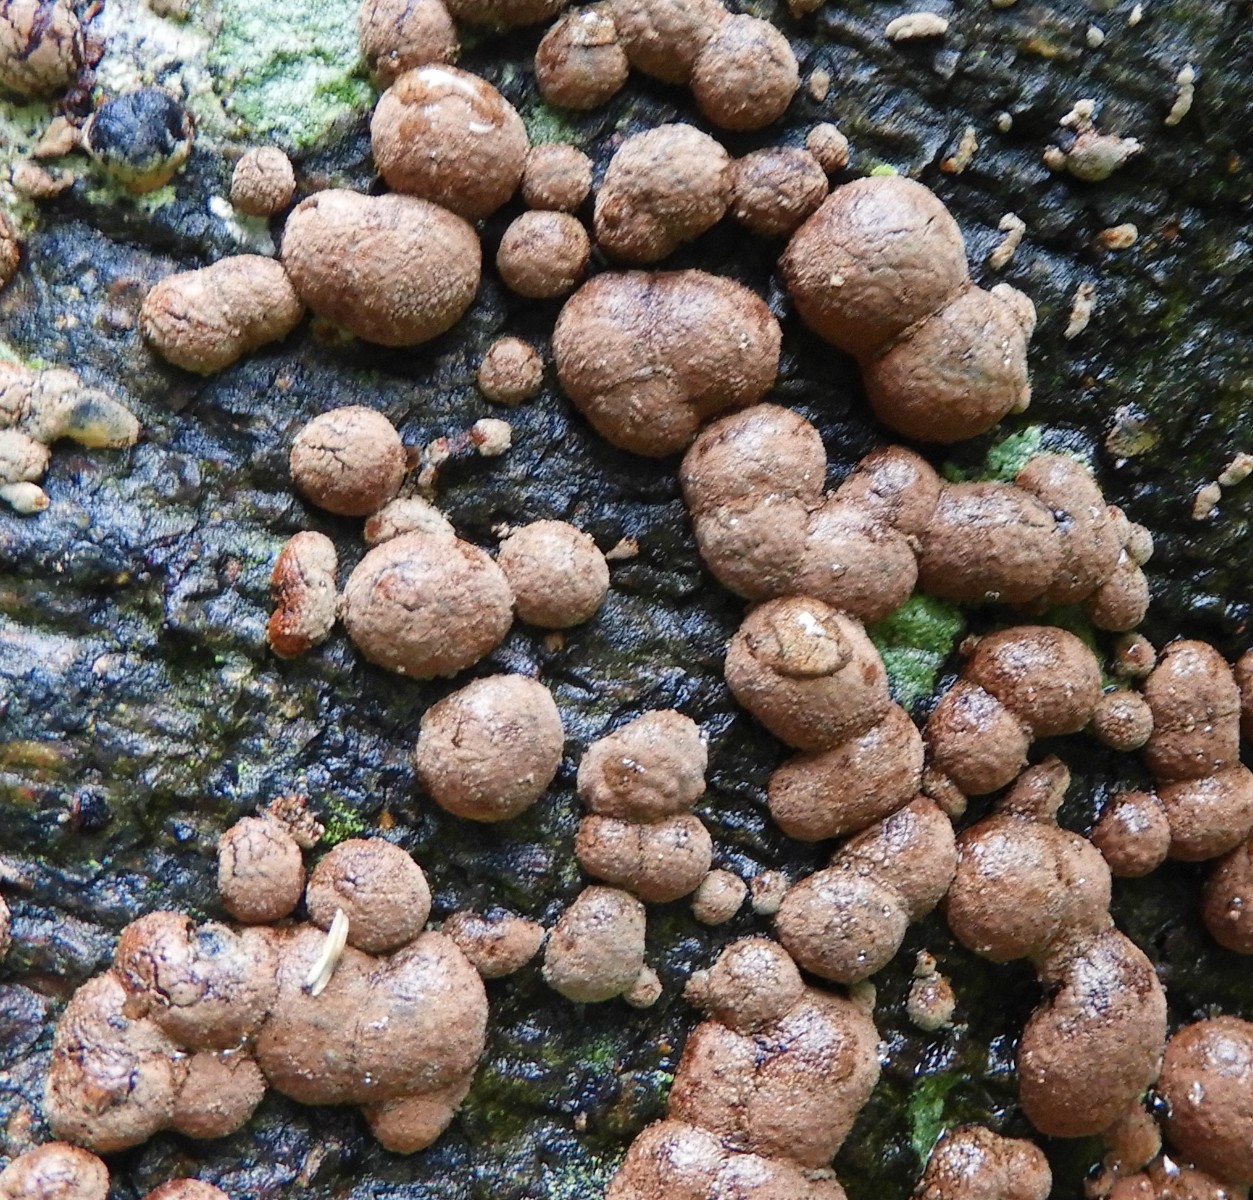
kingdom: Fungi
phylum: Ascomycota
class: Sordariomycetes
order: Xylariales
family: Hypoxylaceae
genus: Hypoxylon
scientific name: Hypoxylon fragiforme
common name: kuljordbær
